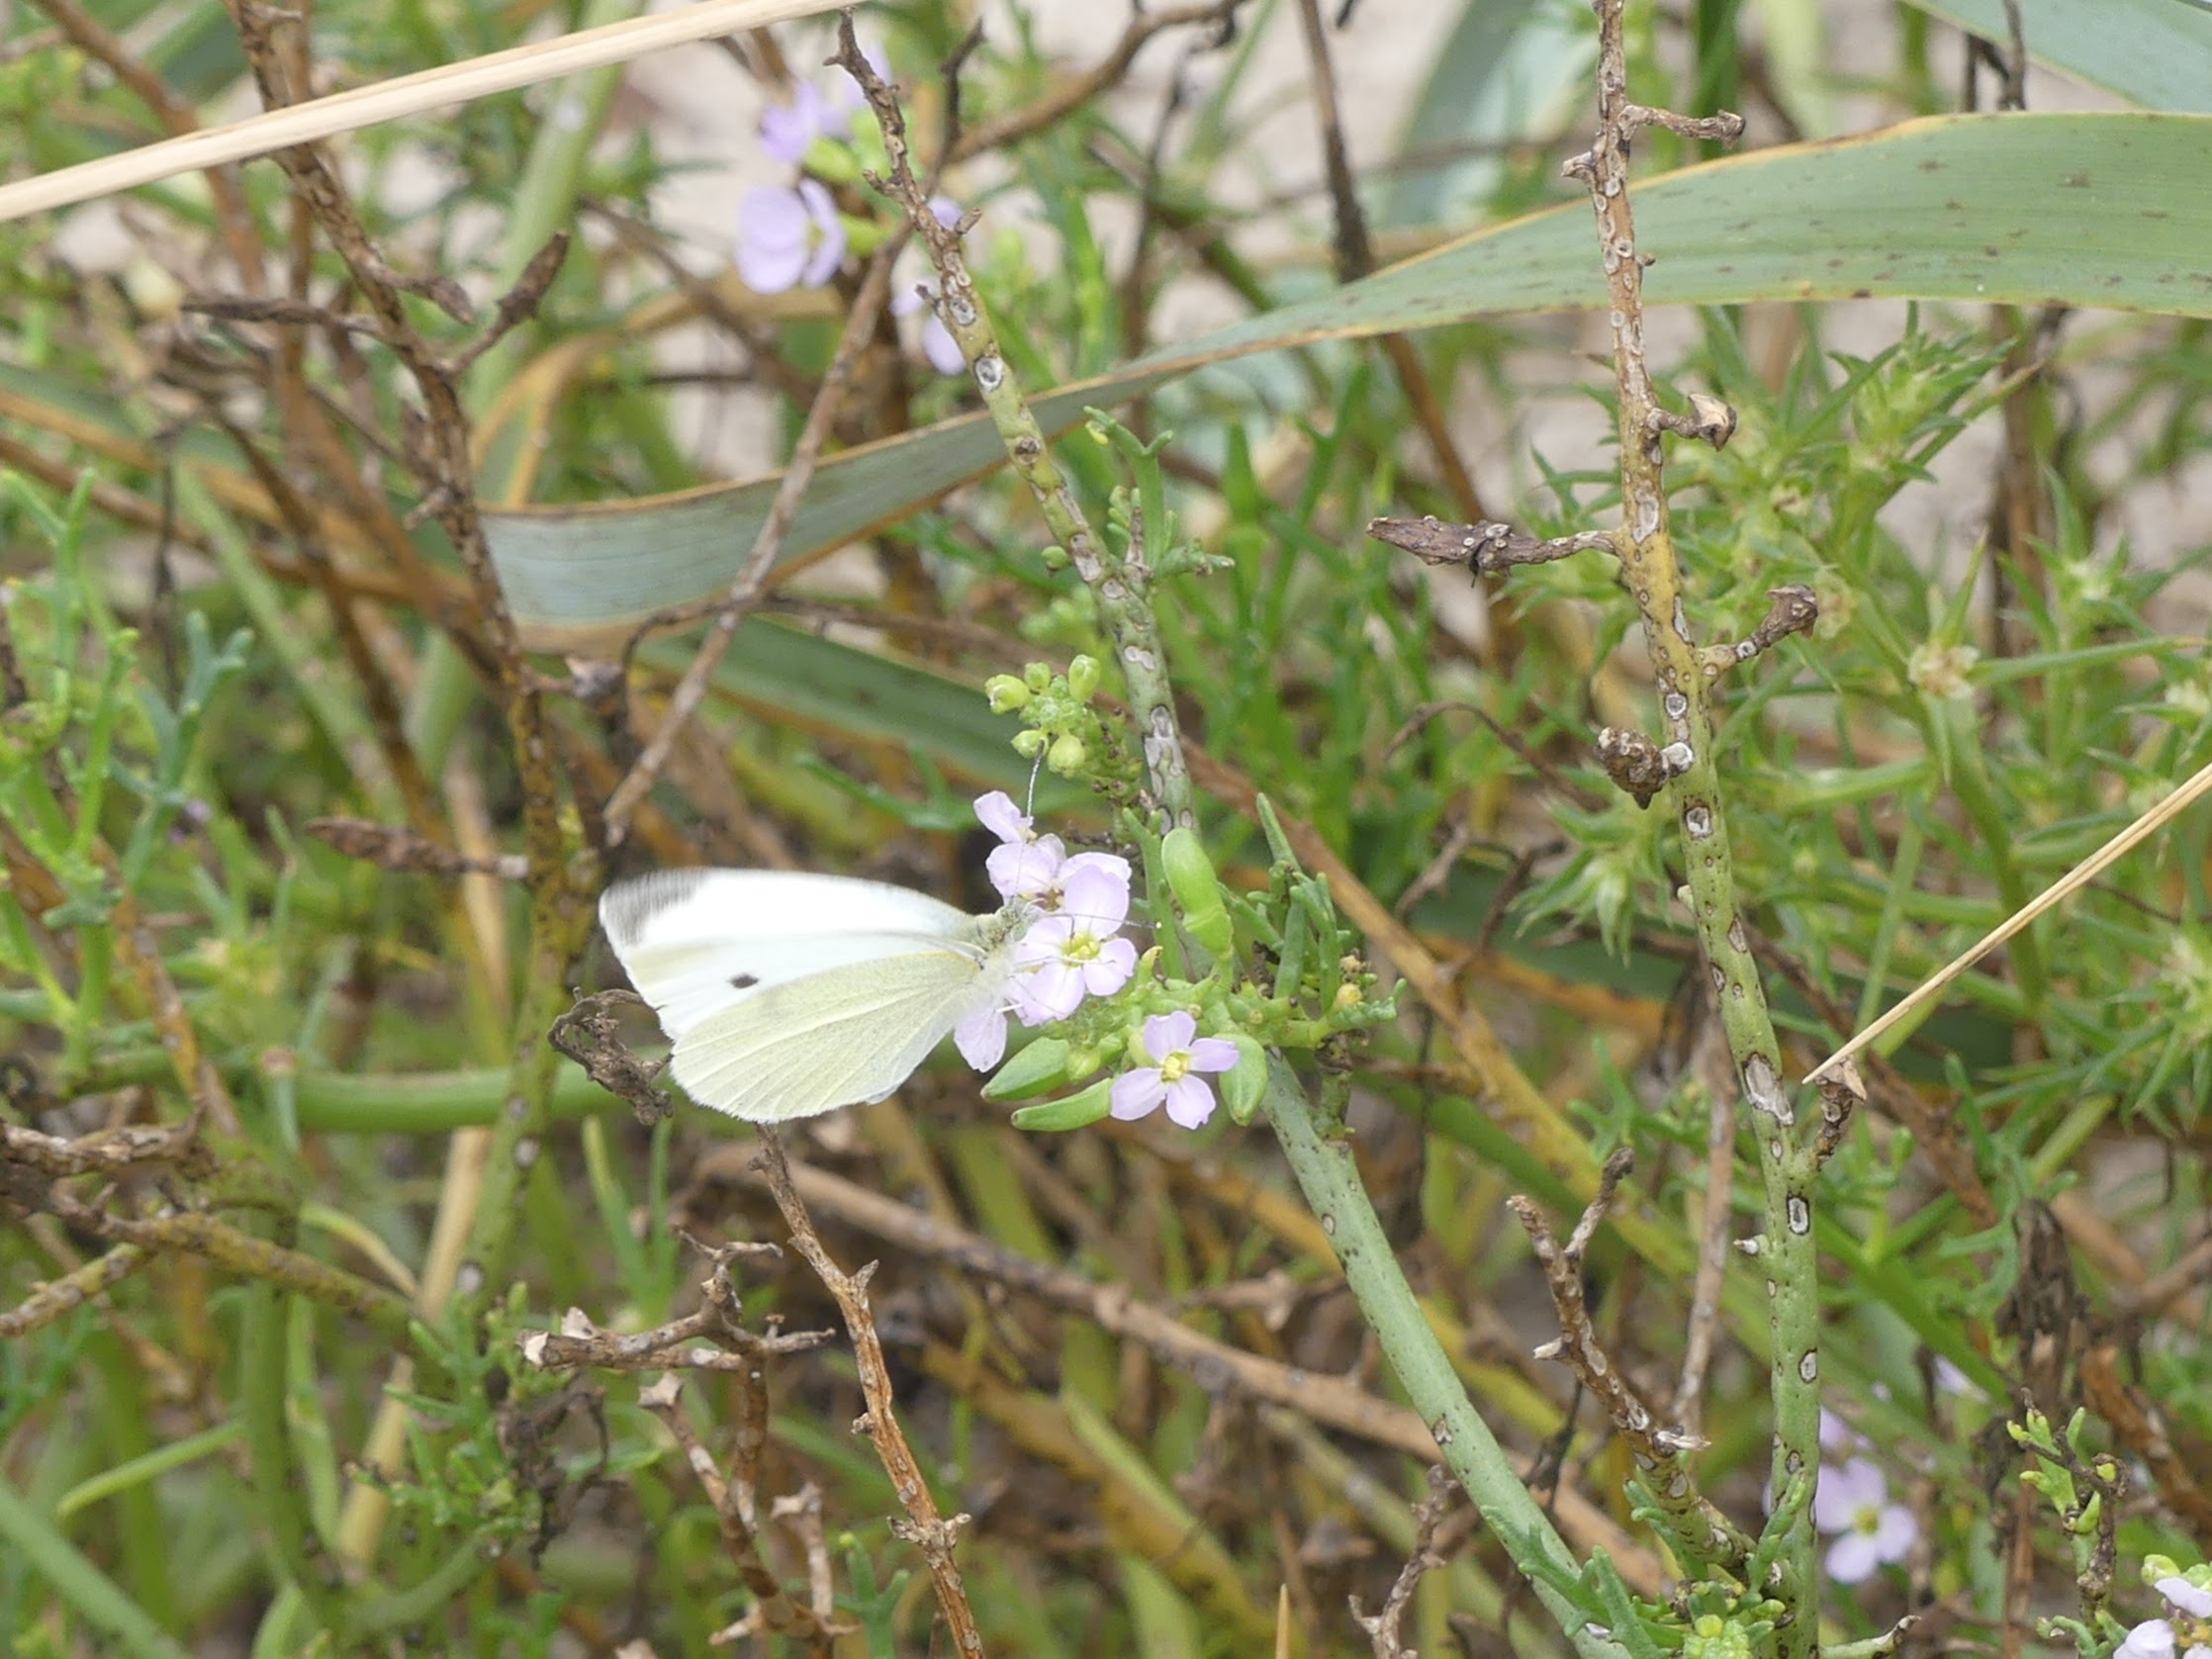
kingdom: Animalia
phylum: Arthropoda
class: Insecta
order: Lepidoptera
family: Pieridae
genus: Pieris
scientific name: Pieris rapae
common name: Lille kålsommerfugl
